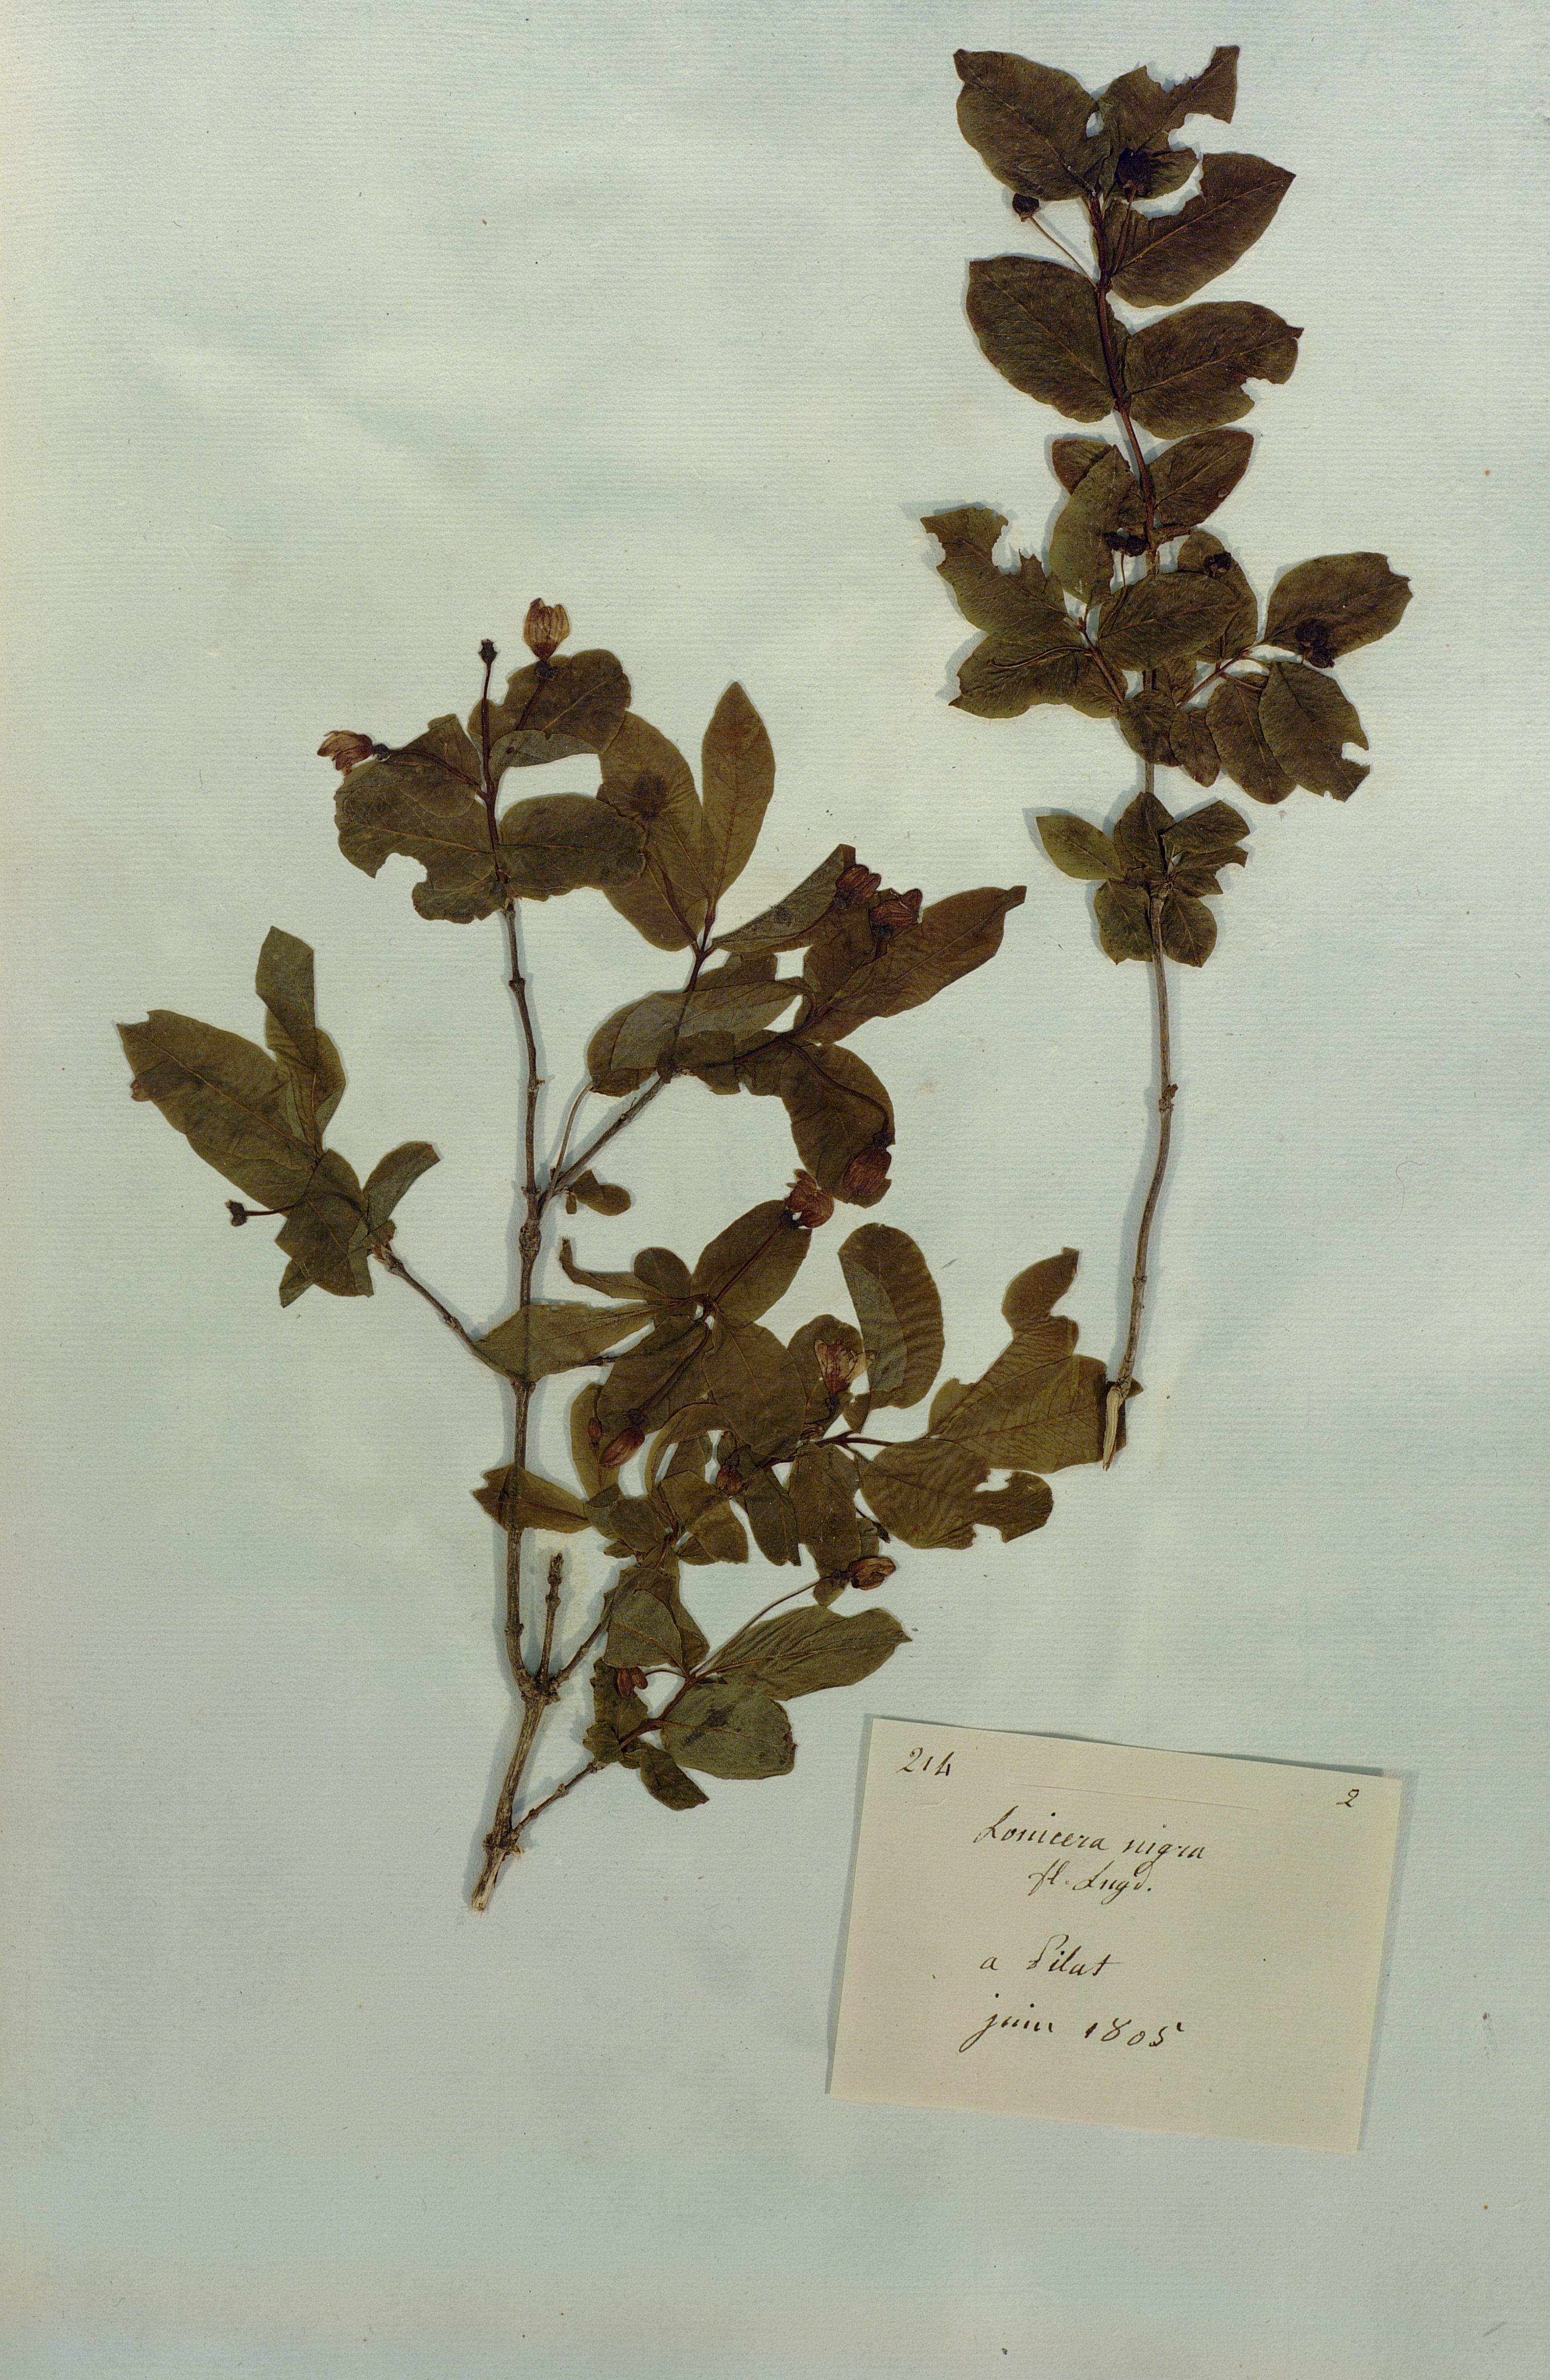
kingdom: Plantae
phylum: Tracheophyta
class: Magnoliopsida
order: Dipsacales
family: Caprifoliaceae
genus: Lonicera
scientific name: Lonicera nigra
